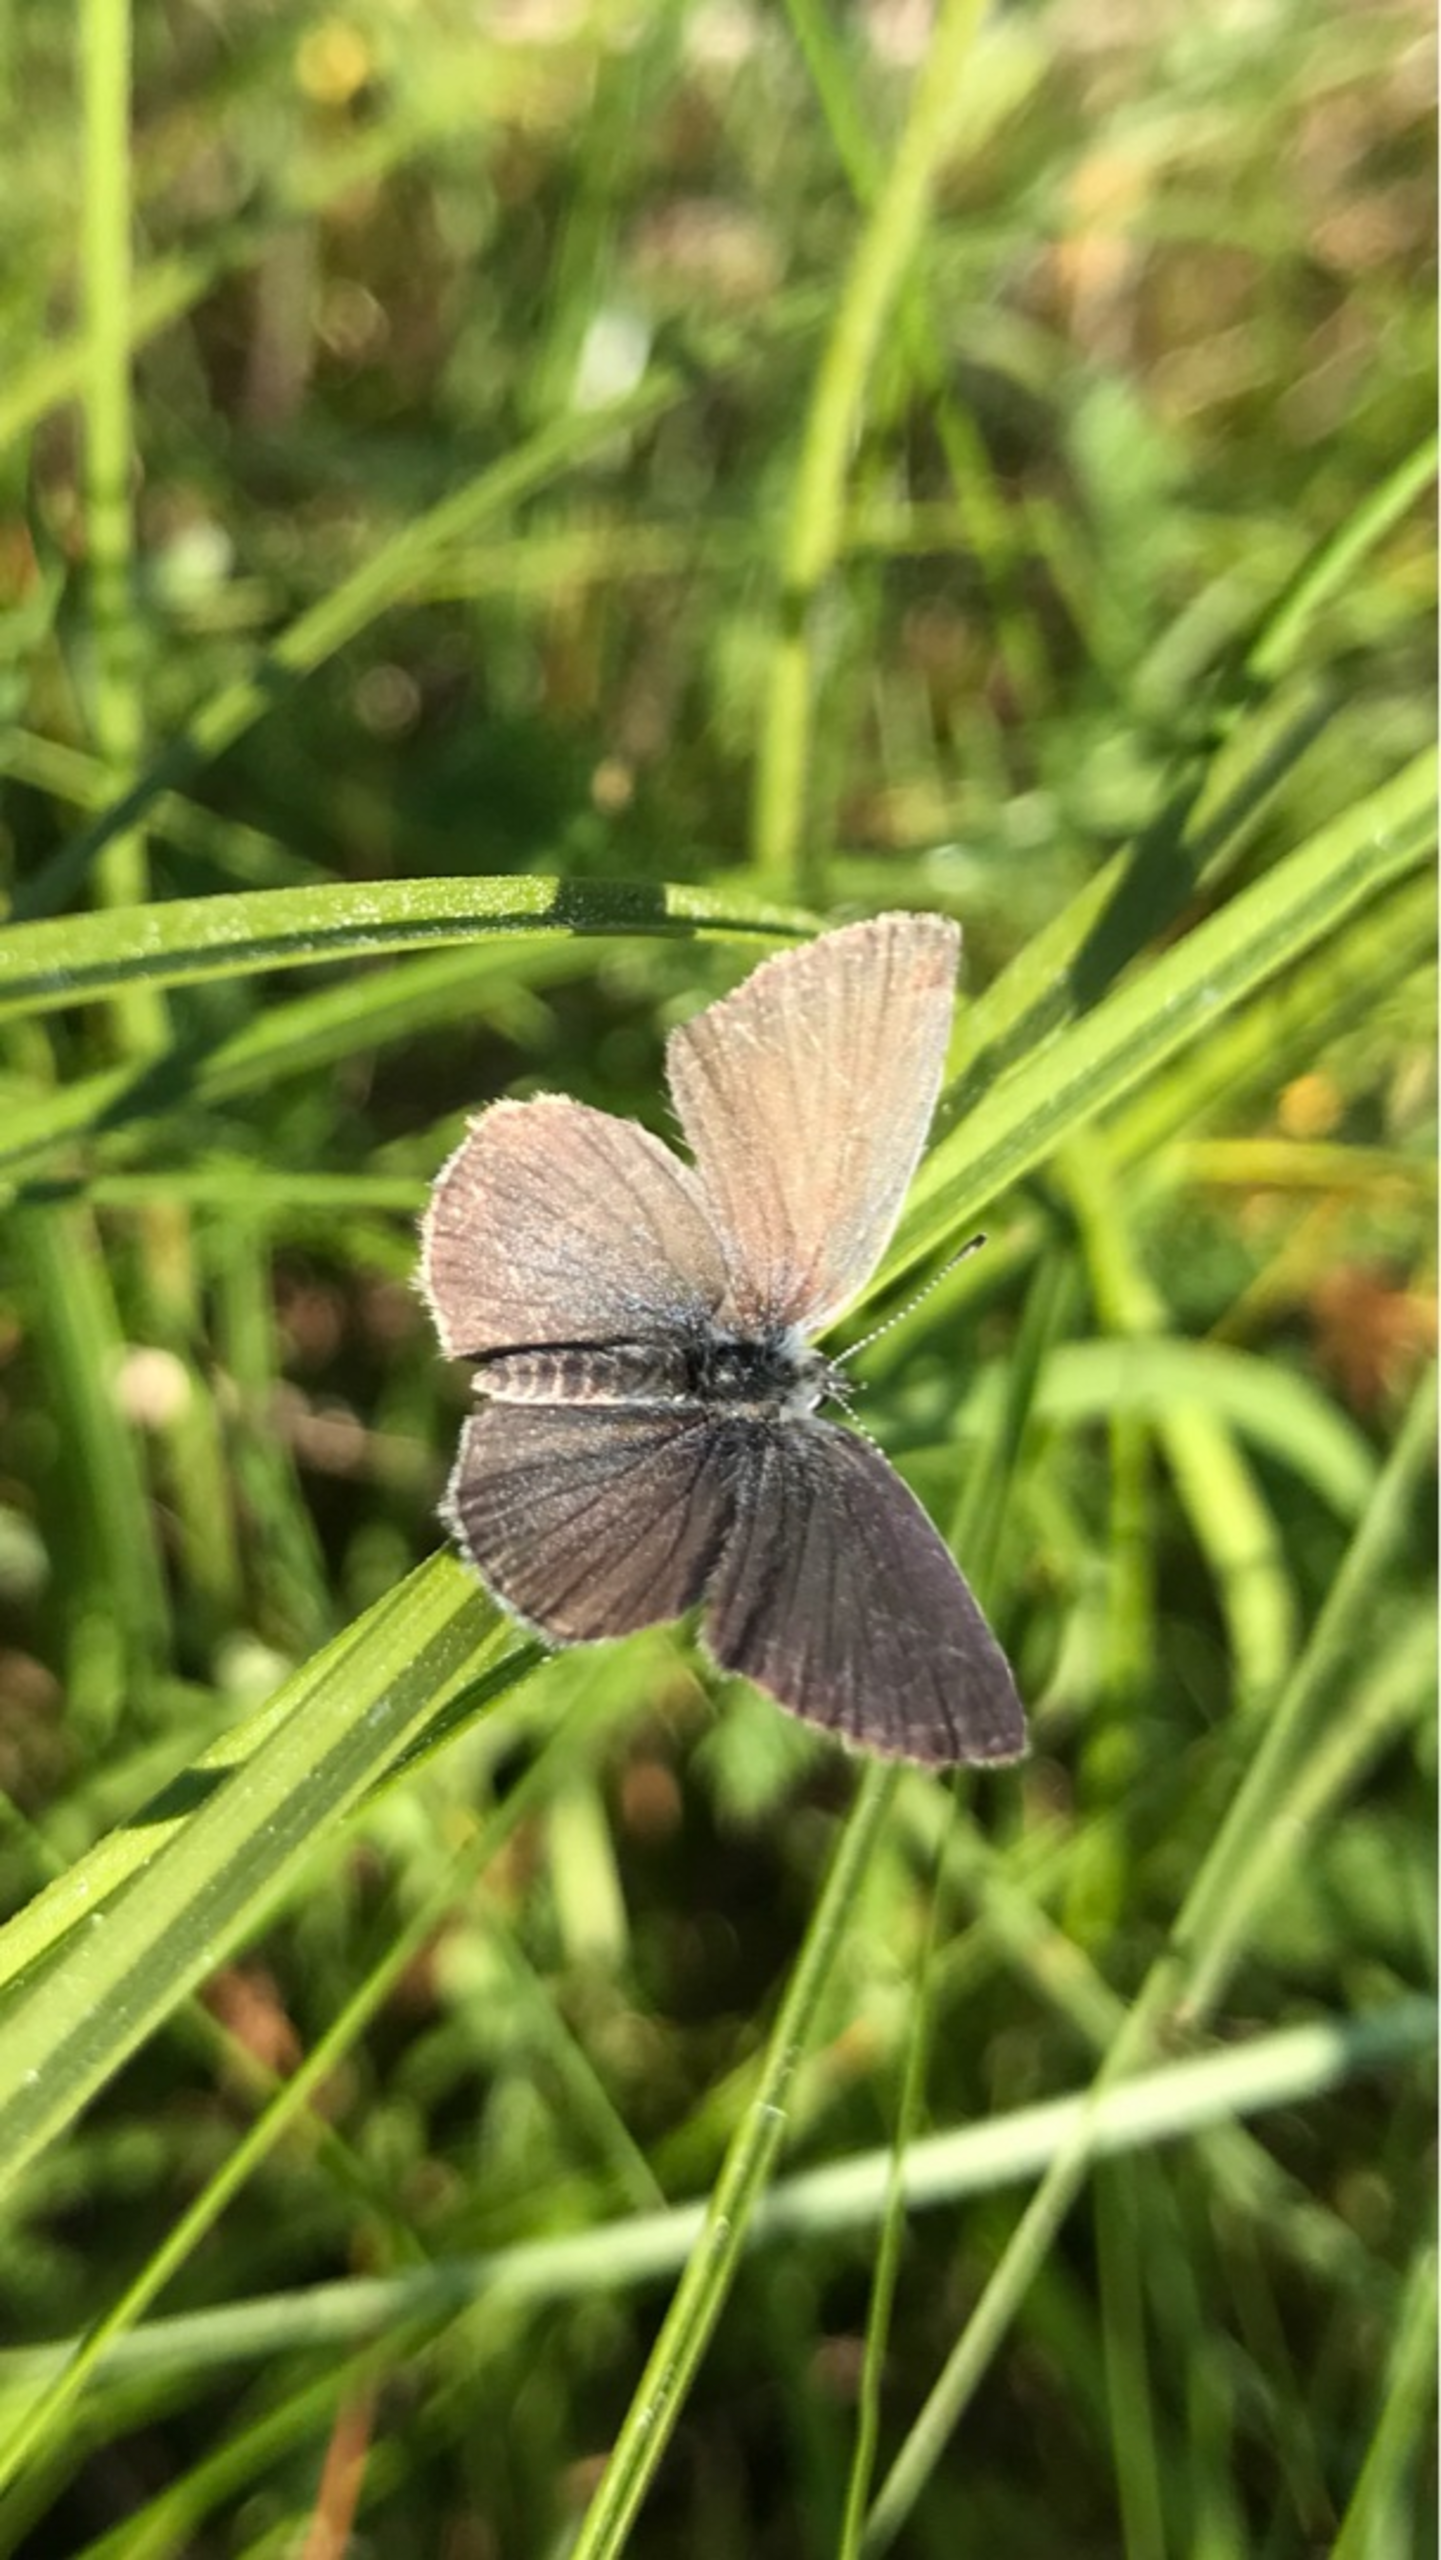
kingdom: Animalia
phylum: Arthropoda
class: Insecta
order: Lepidoptera
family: Lycaenidae
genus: Cupido
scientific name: Cupido minimus
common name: Dværgblåfugl
